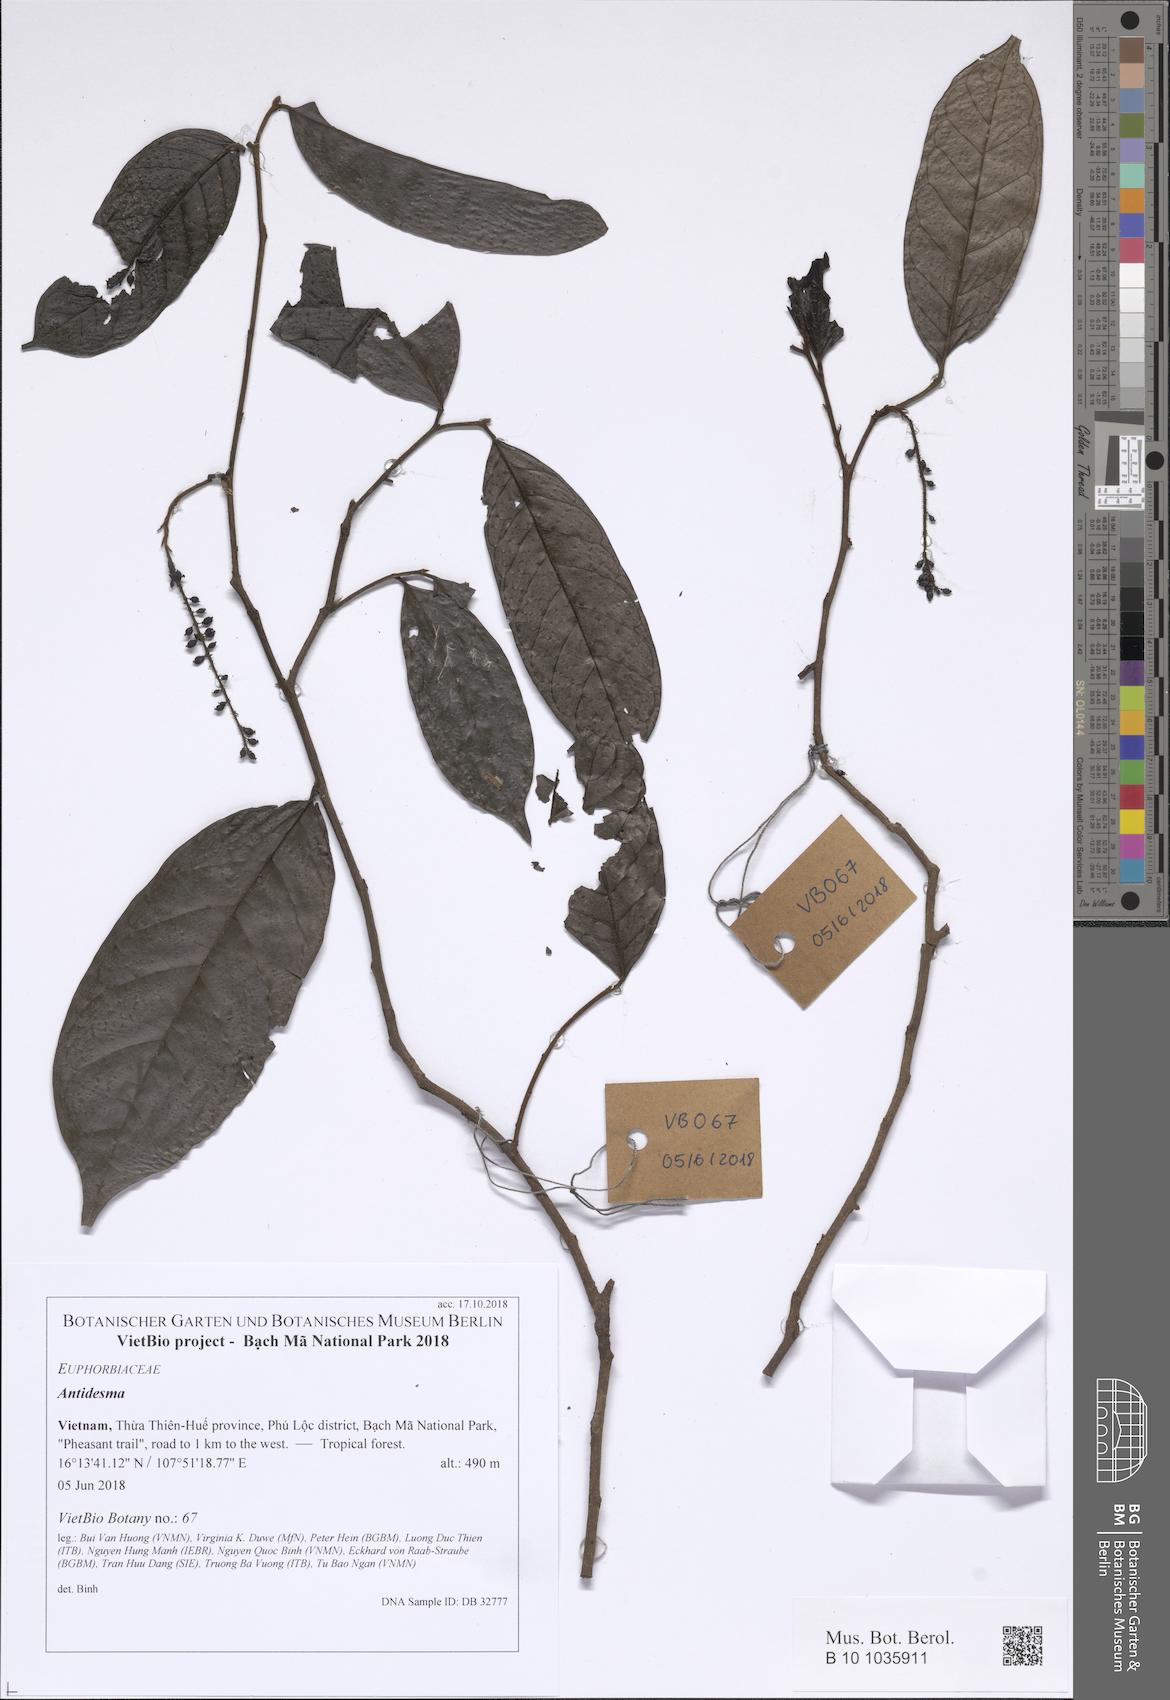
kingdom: Plantae
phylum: Tracheophyta
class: Magnoliopsida
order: Malpighiales
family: Phyllanthaceae
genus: Antidesma
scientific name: Antidesma
